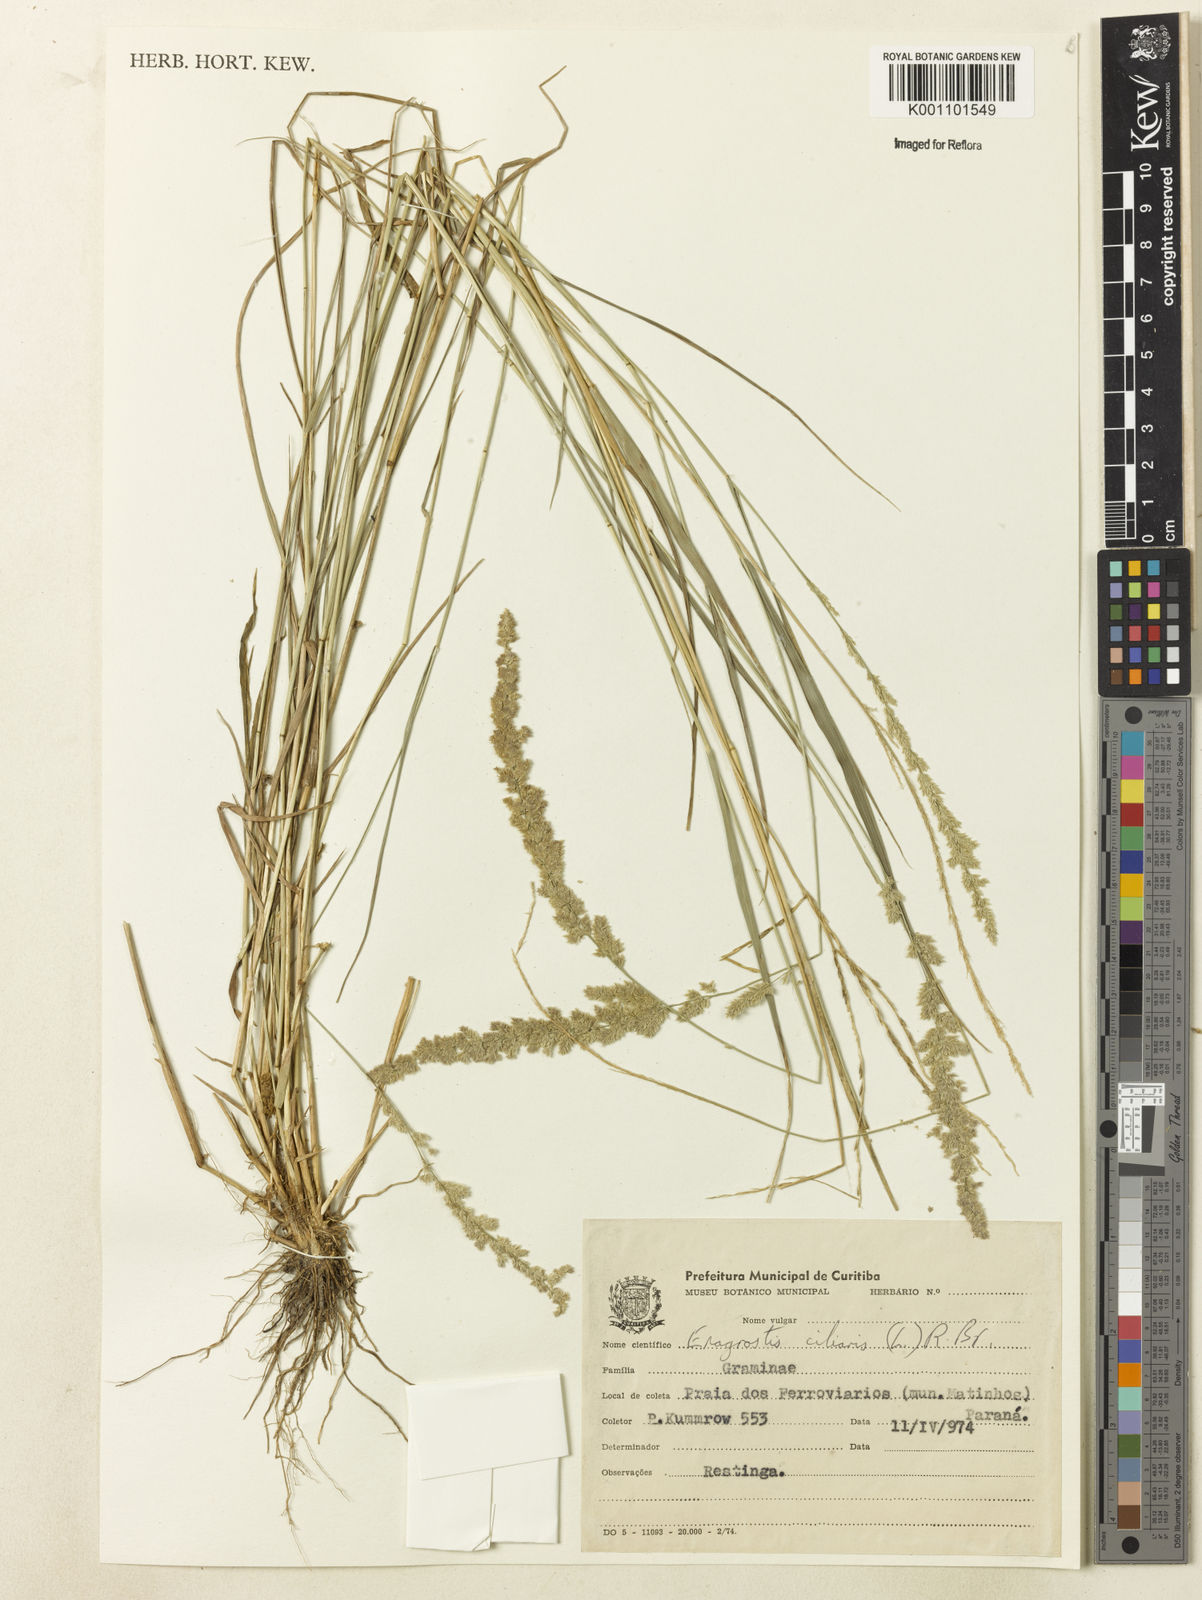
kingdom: Plantae
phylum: Tracheophyta
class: Liliopsida
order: Poales
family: Poaceae
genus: Eragrostis
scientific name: Eragrostis ciliaris
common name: Gophertail lovegrass
